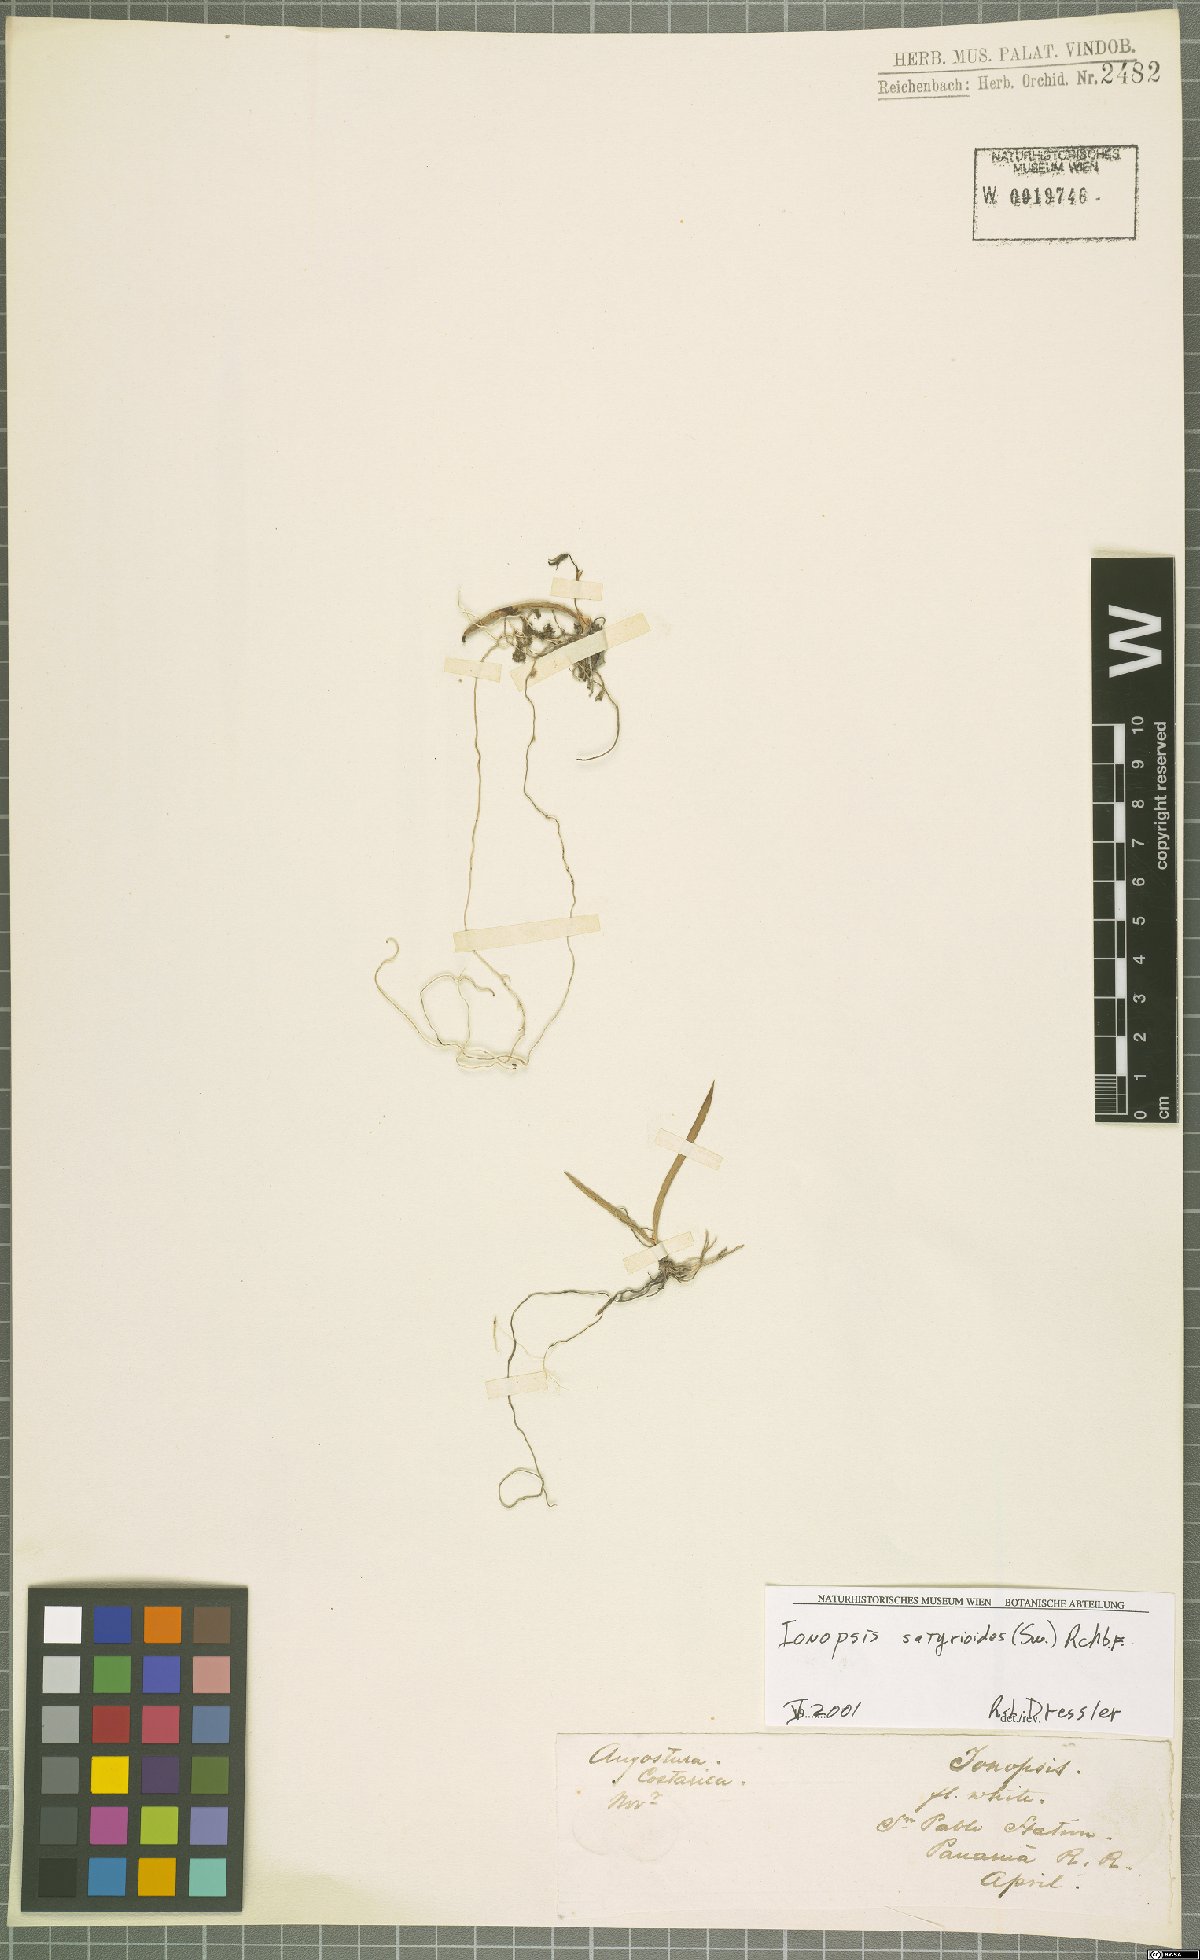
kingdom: Plantae
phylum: Tracheophyta
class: Liliopsida
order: Asparagales
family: Orchidaceae
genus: Ionopsis
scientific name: Ionopsis satyrioides
